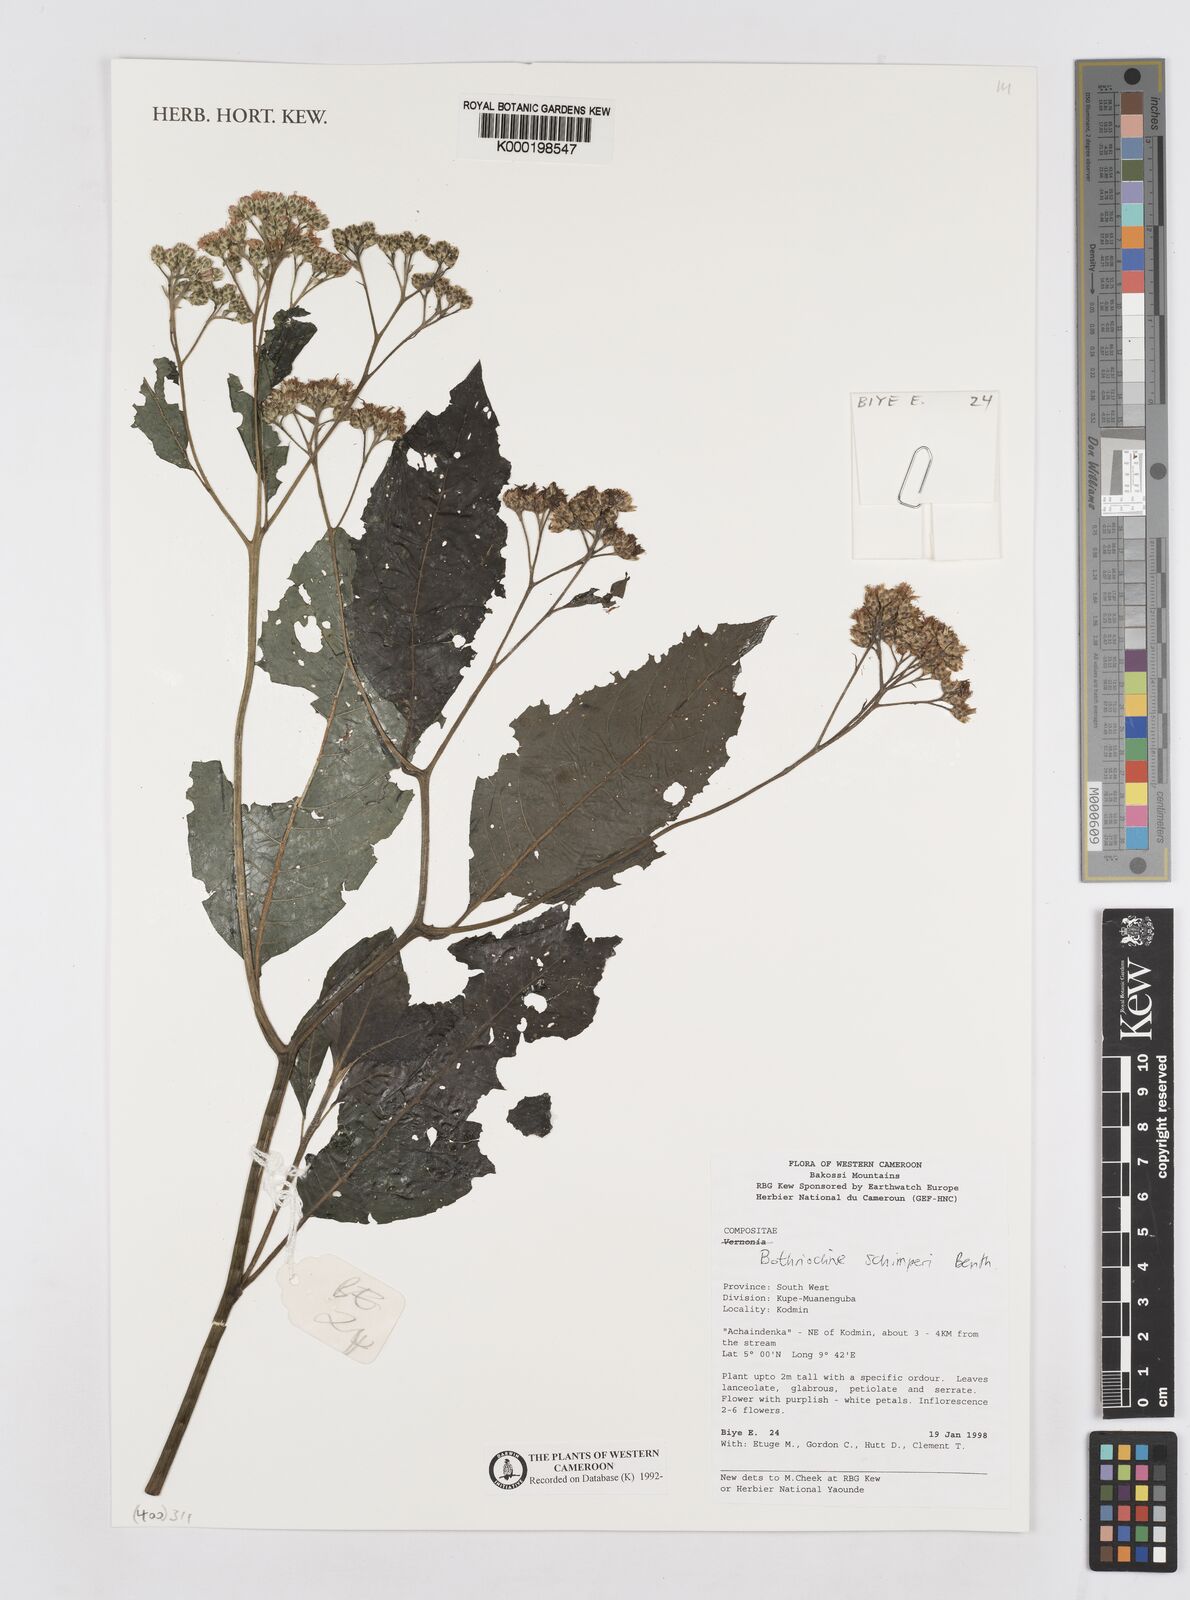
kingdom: Plantae
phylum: Tracheophyta
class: Magnoliopsida
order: Asterales
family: Asteraceae
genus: Bothriocline
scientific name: Bothriocline schimperi
